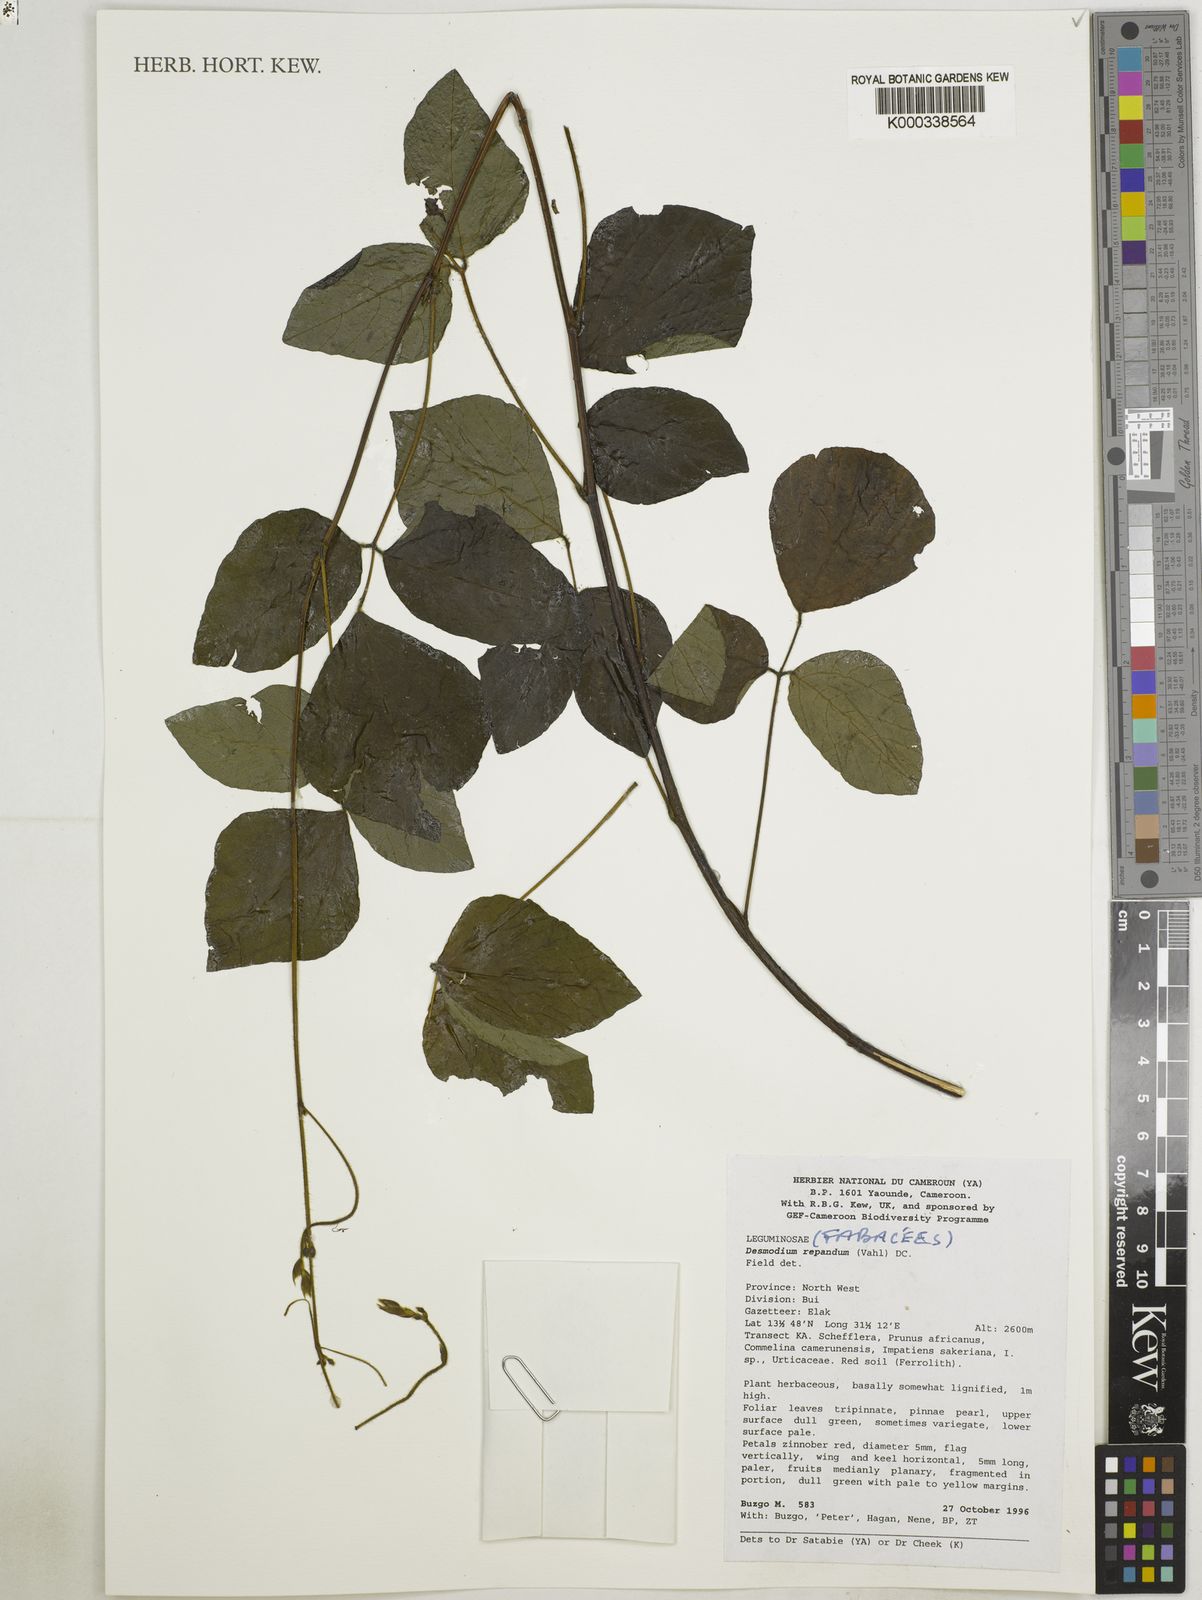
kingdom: Plantae
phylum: Tracheophyta
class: Magnoliopsida
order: Fabales
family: Fabaceae
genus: Desmodium
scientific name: Desmodium
